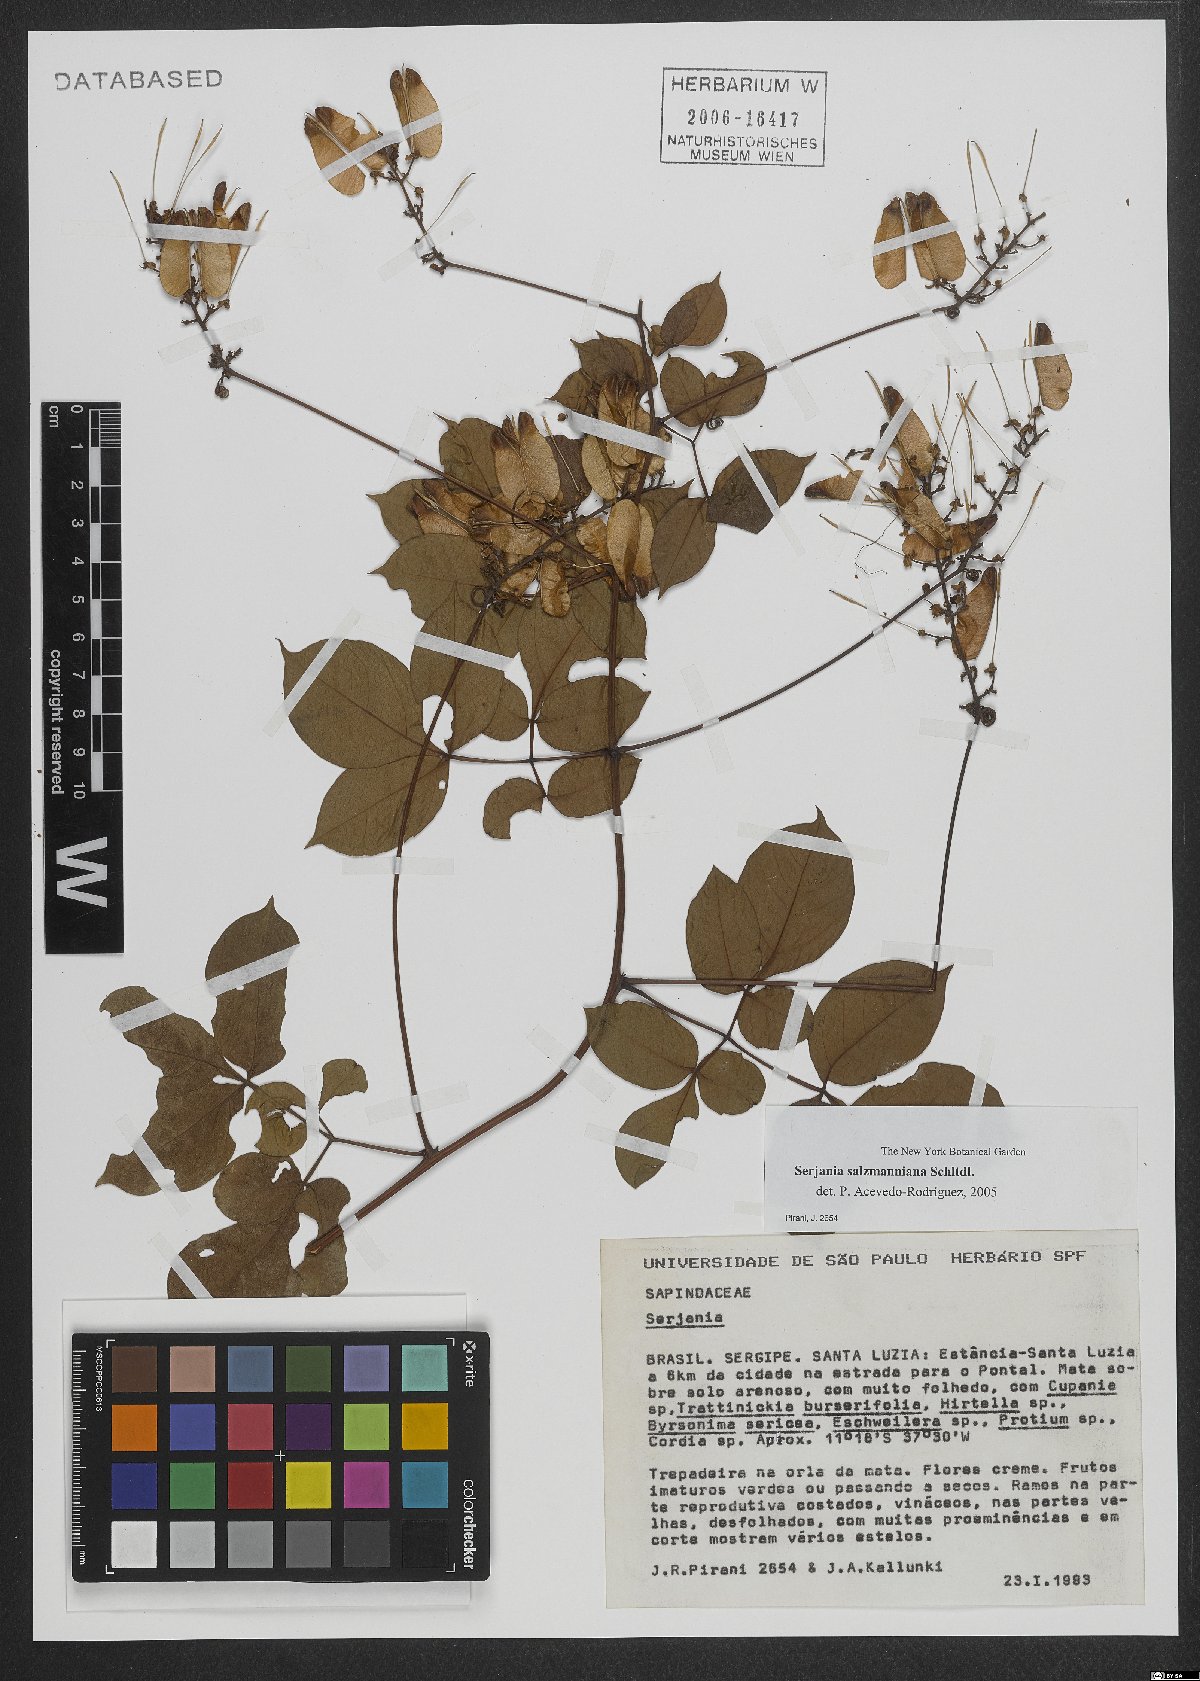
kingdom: Plantae
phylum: Tracheophyta
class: Magnoliopsida
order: Sapindales
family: Sapindaceae
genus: Serjania
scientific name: Serjania salzmanniana
